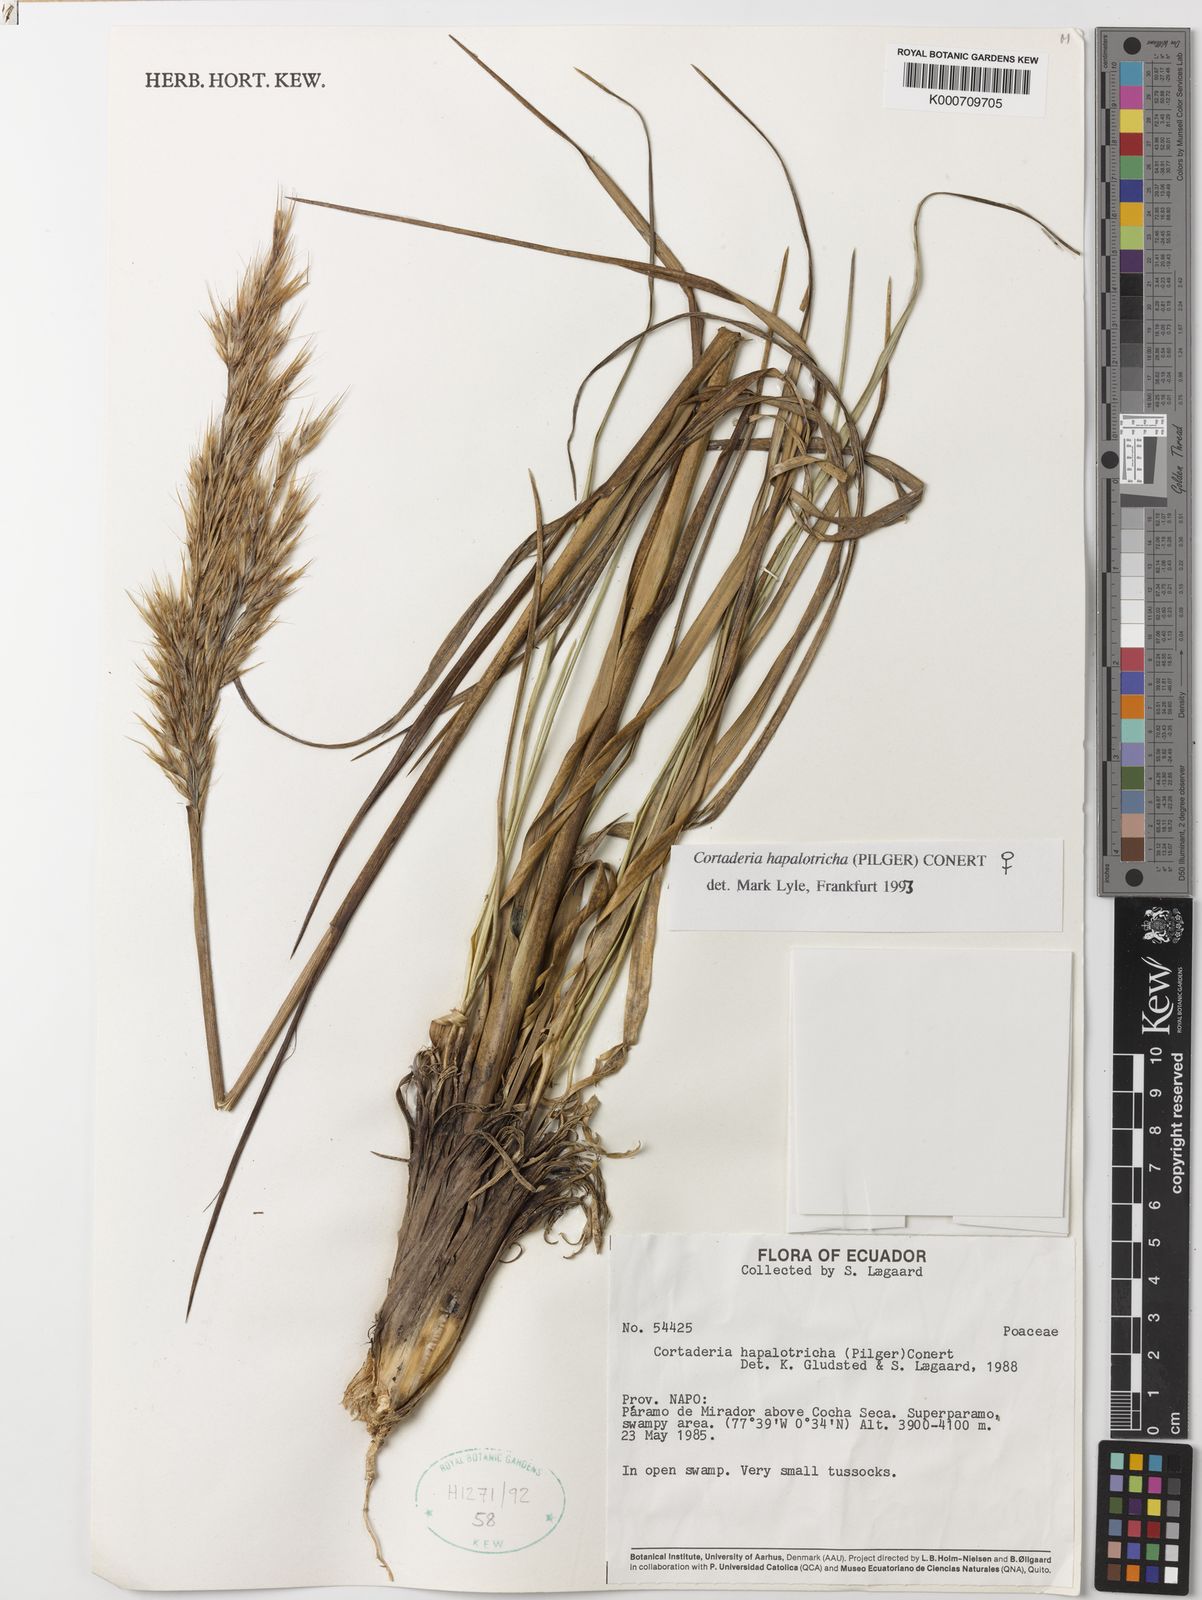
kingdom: Plantae
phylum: Tracheophyta
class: Liliopsida
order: Poales
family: Poaceae
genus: Cortaderia
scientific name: Cortaderia hapalotricha
